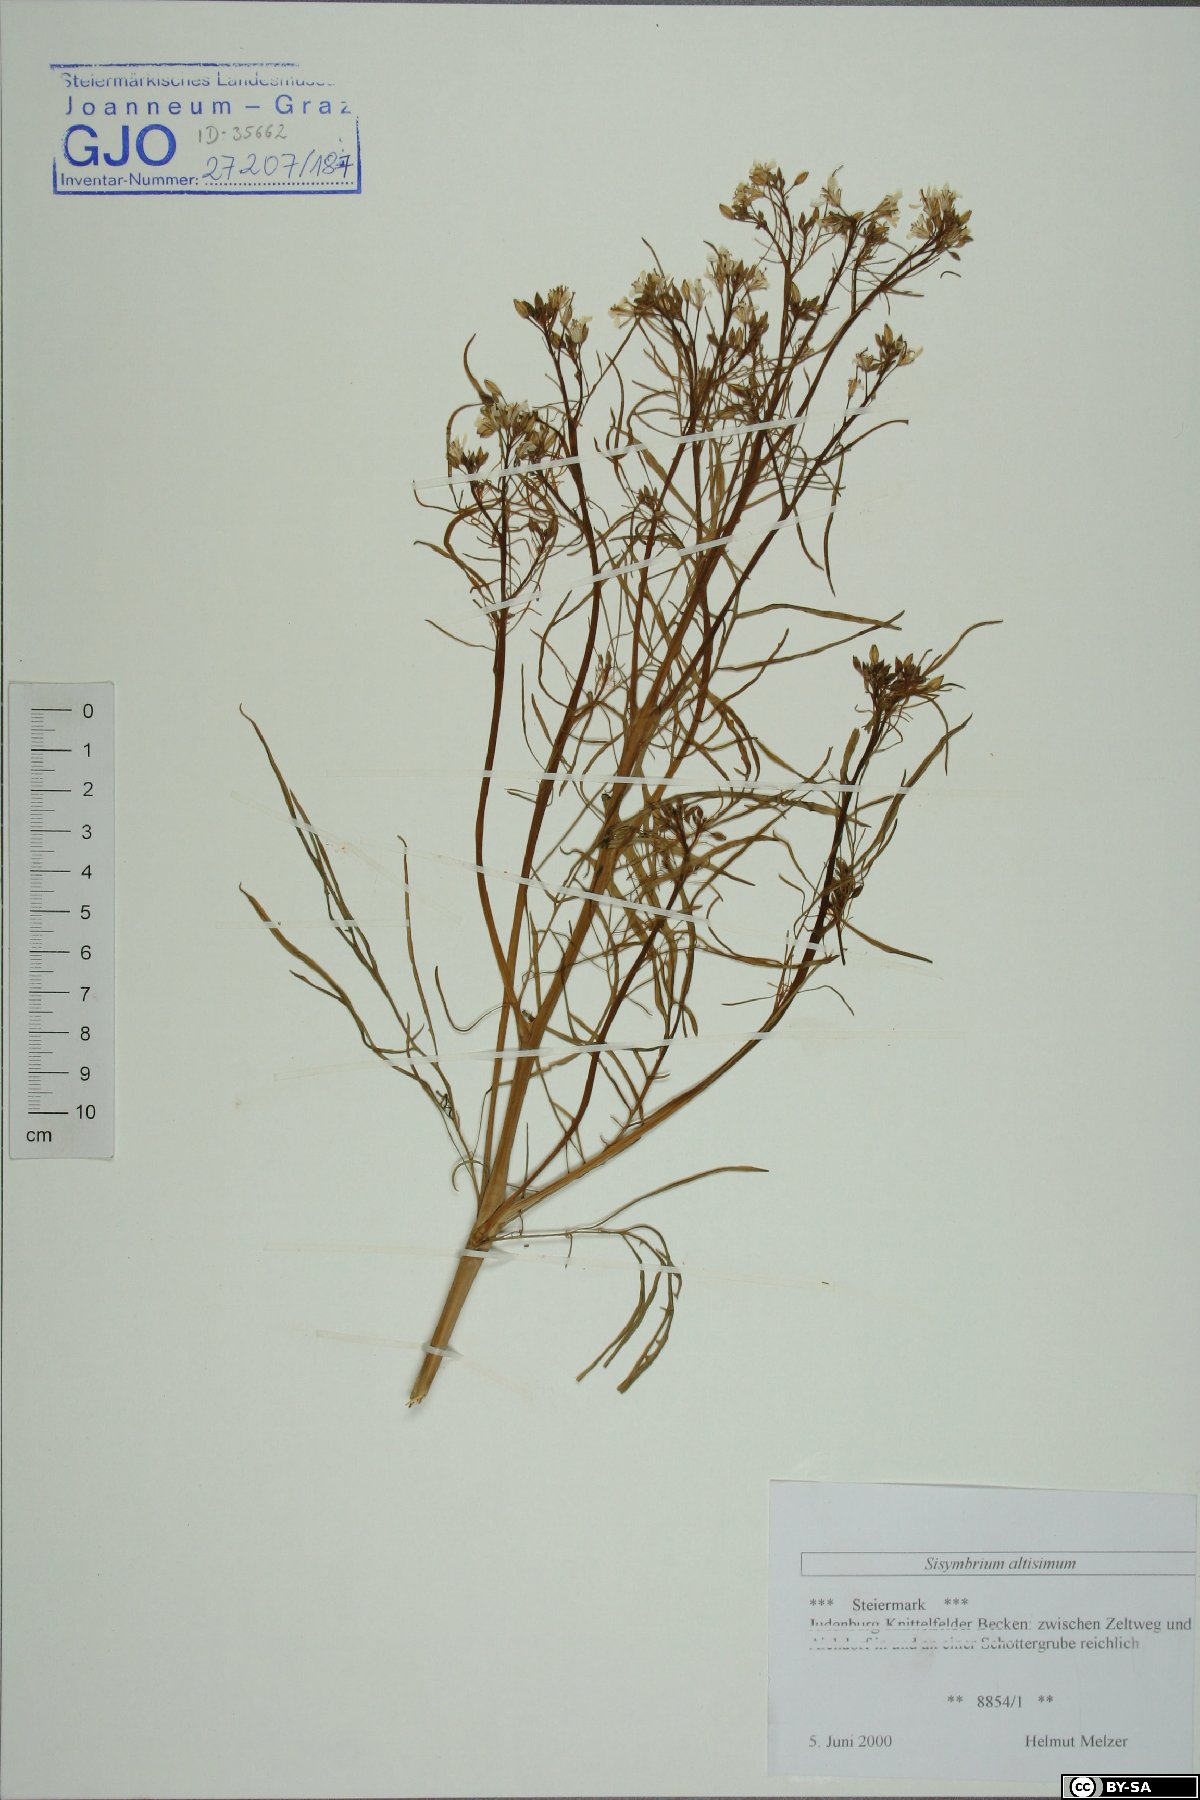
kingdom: Plantae
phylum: Tracheophyta
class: Magnoliopsida
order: Brassicales
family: Brassicaceae
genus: Sisymbrium
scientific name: Sisymbrium altissimum
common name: Tall rocket
